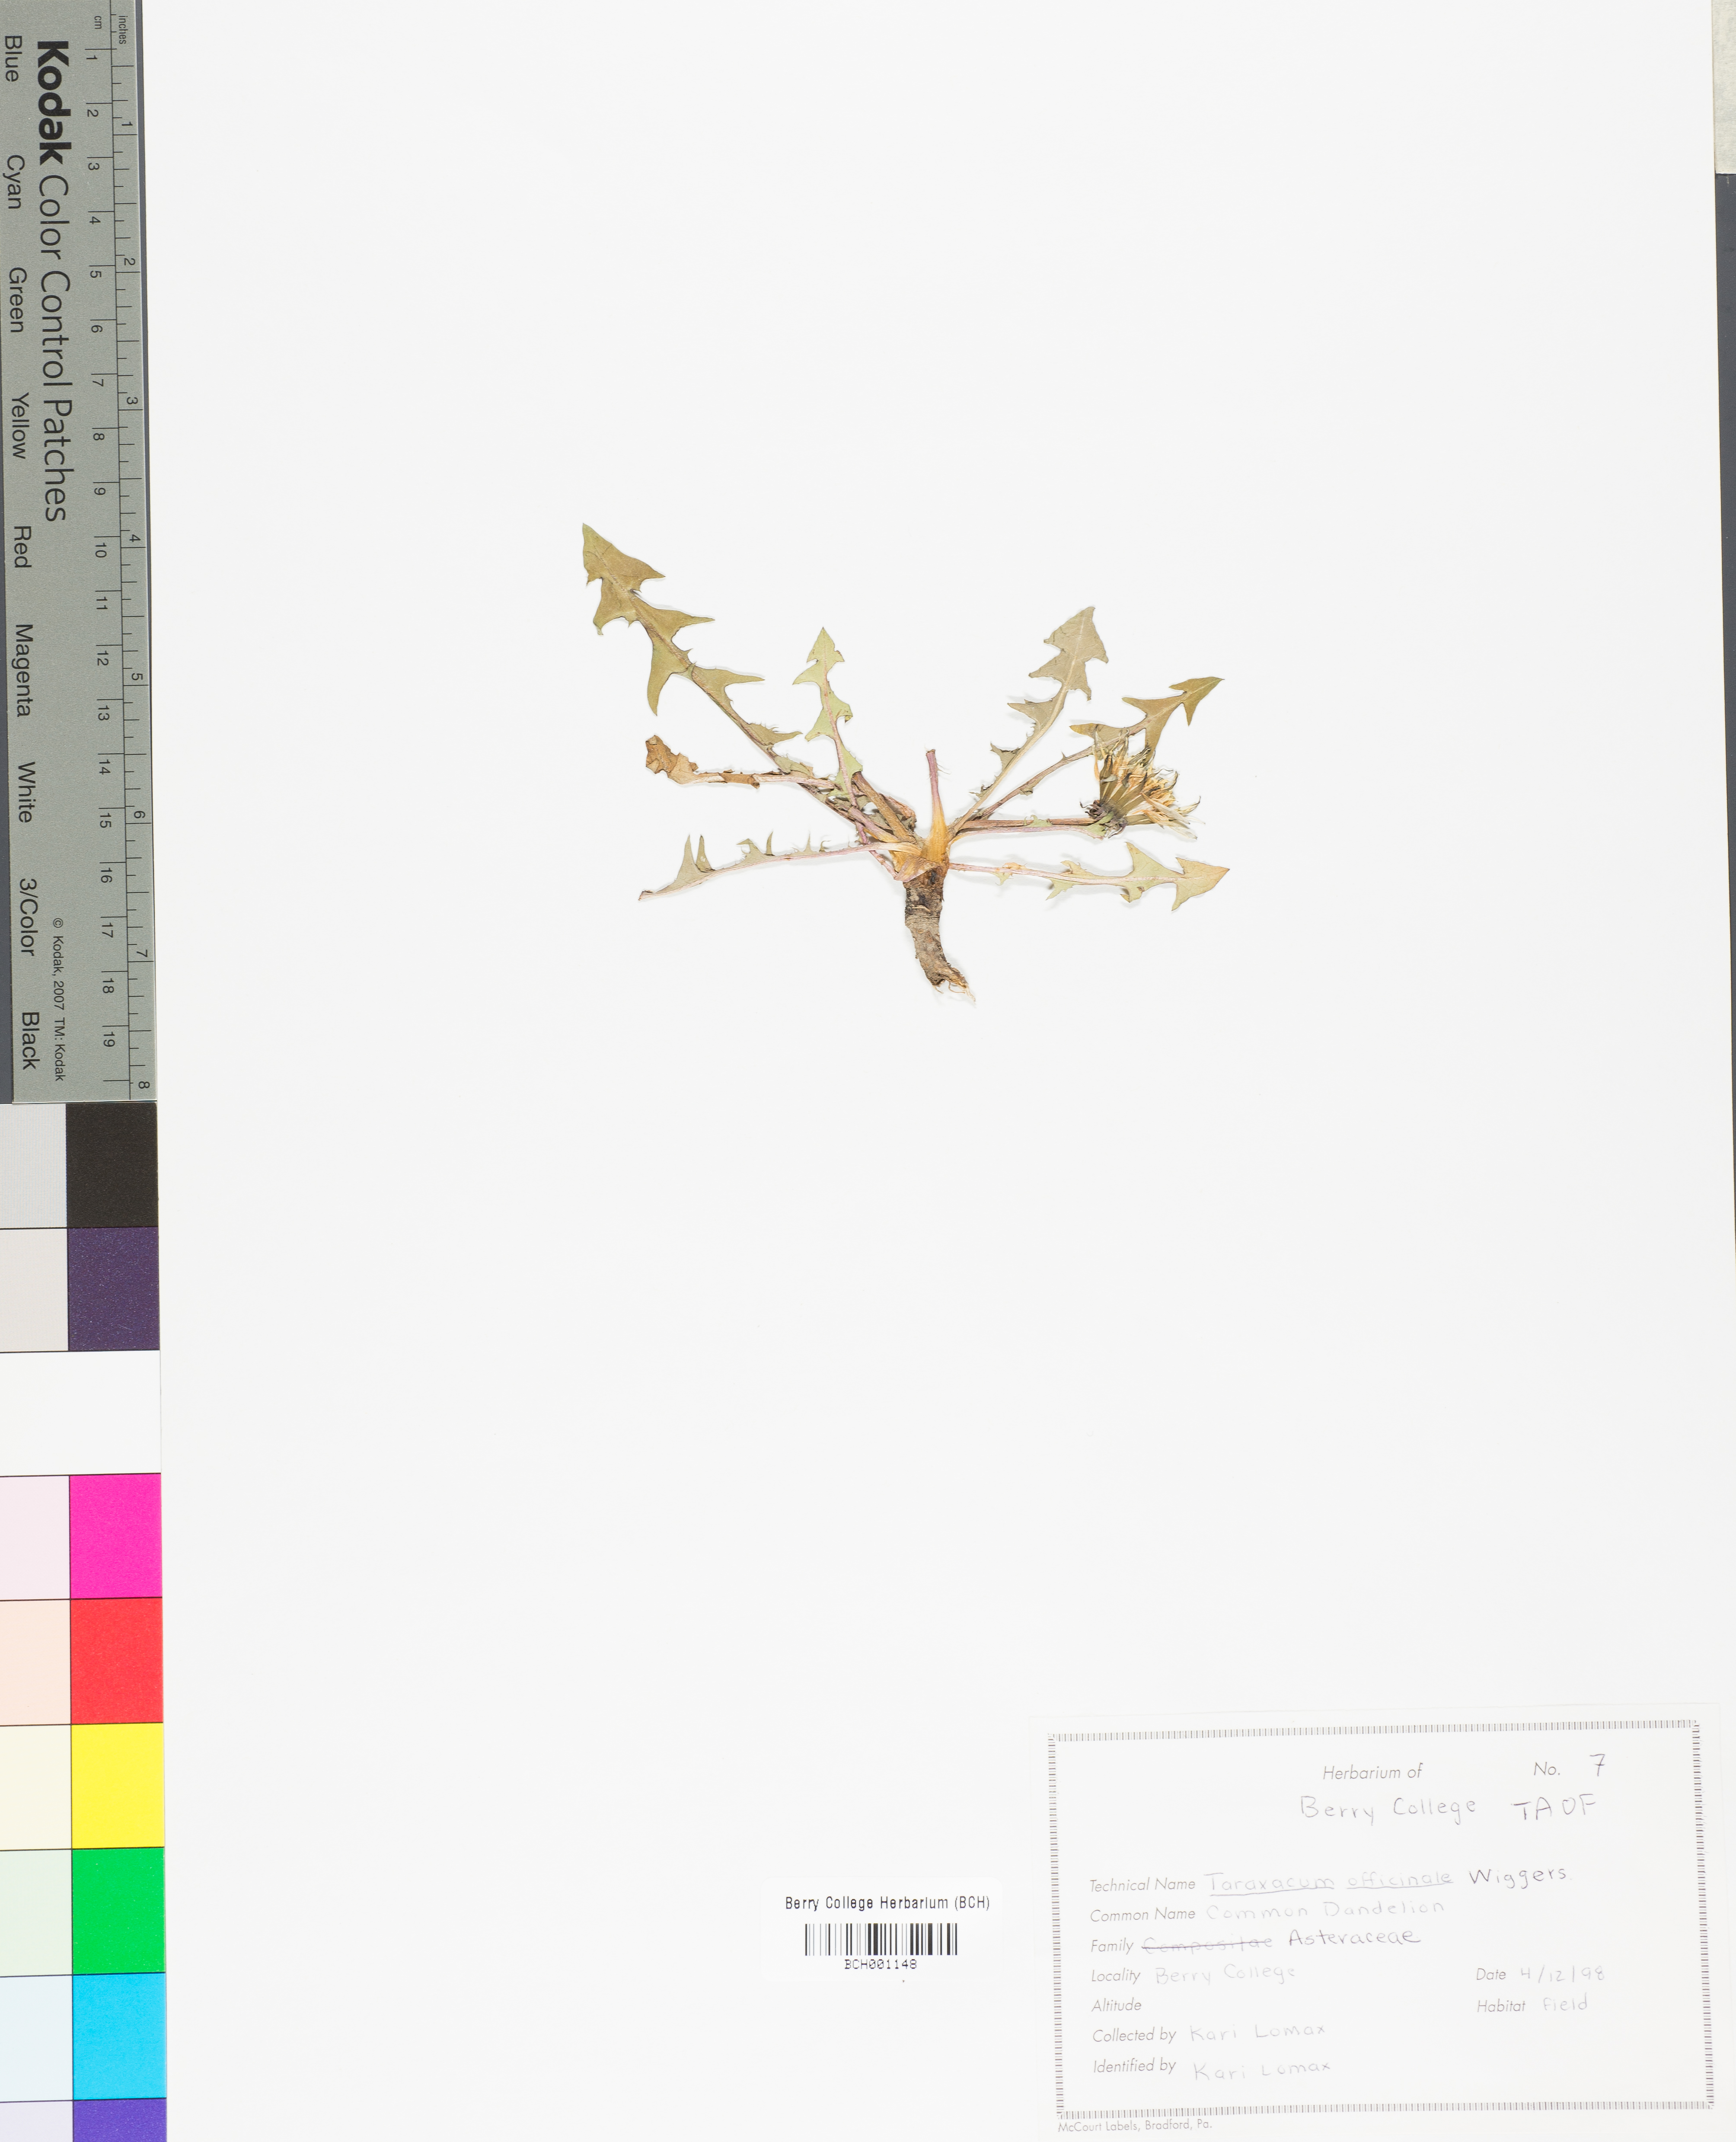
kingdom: Plantae
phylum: Tracheophyta
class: Magnoliopsida
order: Asterales
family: Asteraceae
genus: Taraxacum
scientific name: Taraxacum officinale
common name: Common dandelion
